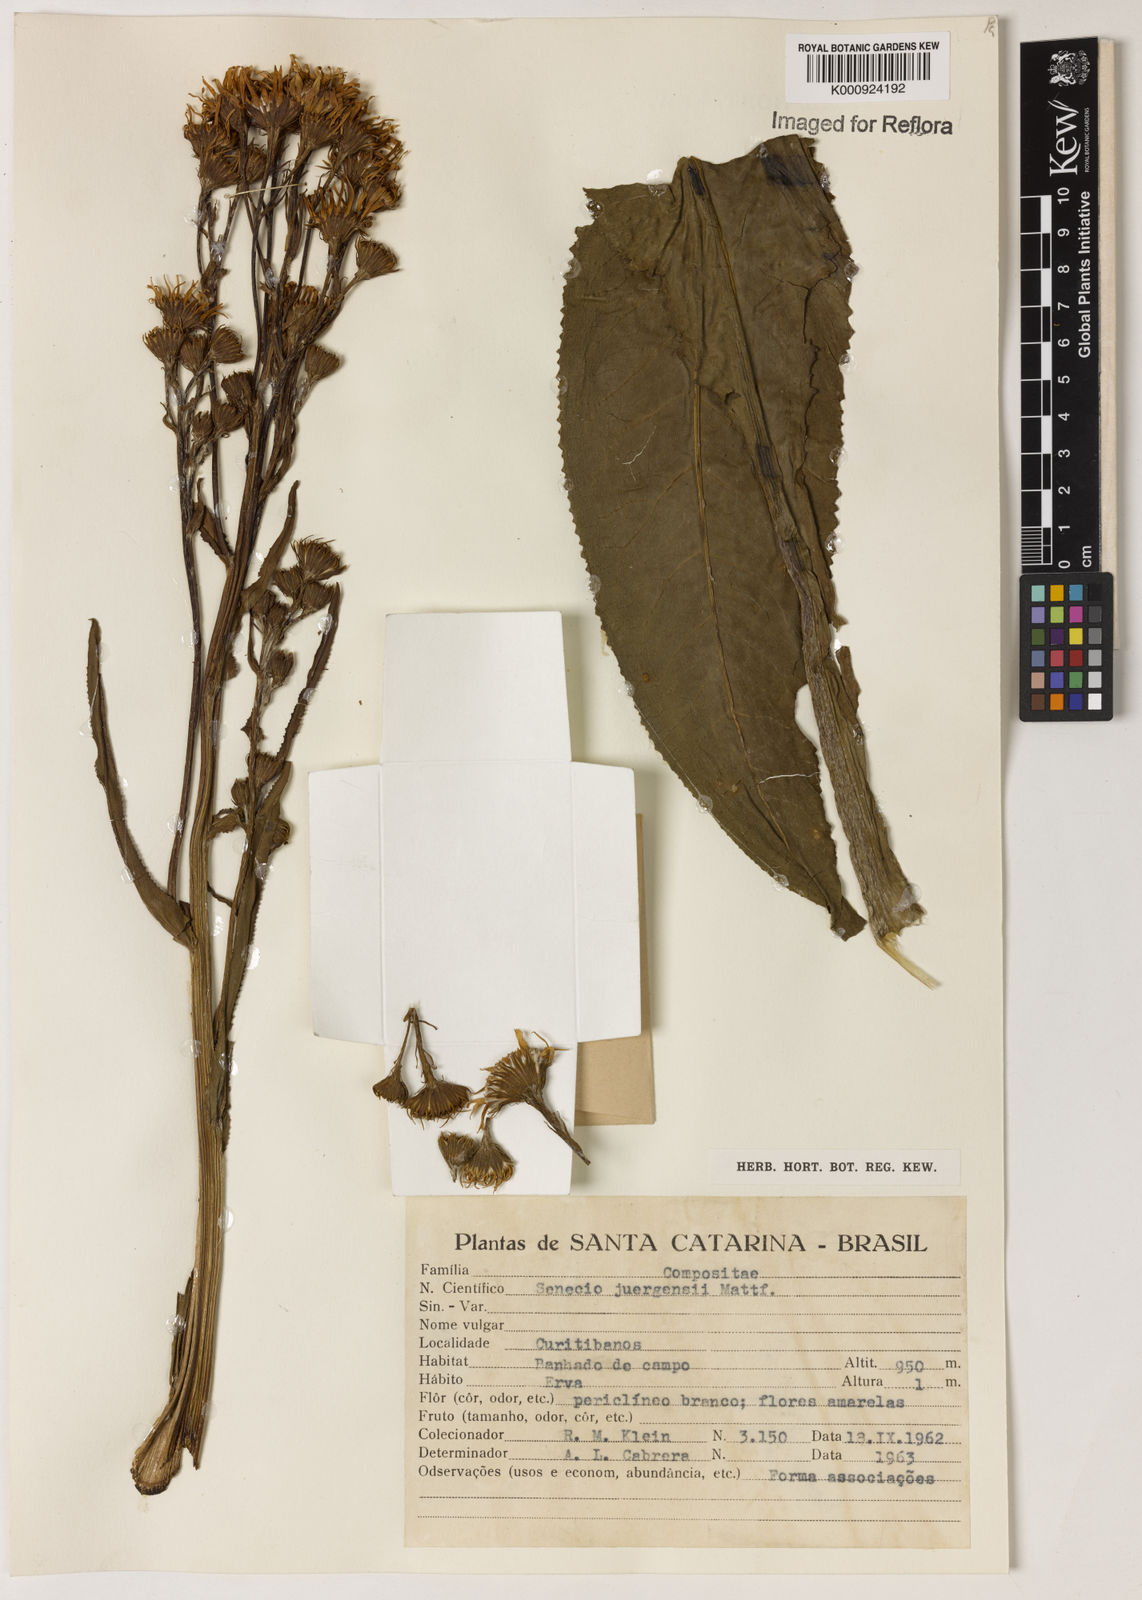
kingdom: Plantae
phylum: Tracheophyta
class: Magnoliopsida
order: Asterales
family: Asteraceae
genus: Senecio
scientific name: Senecio juergensii
